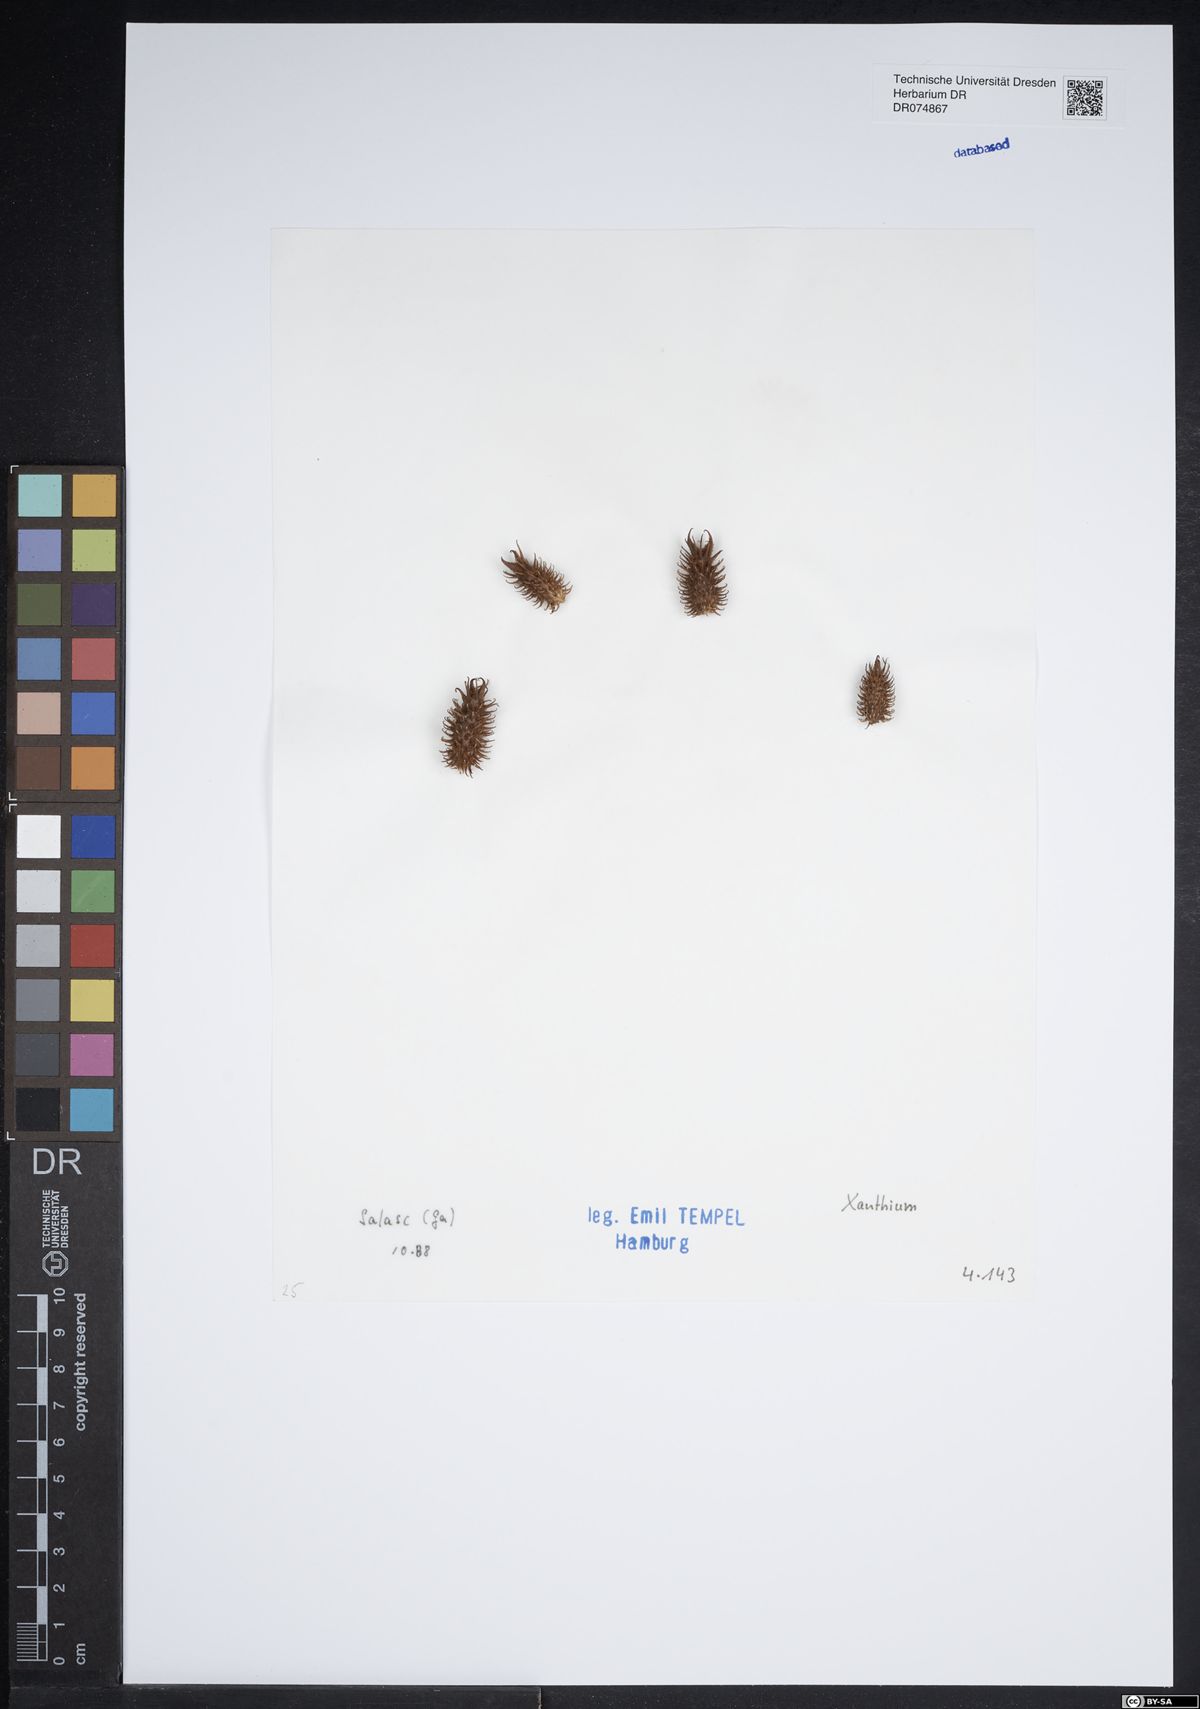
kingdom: Plantae
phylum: Tracheophyta
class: Magnoliopsida
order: Asterales
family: Asteraceae
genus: Bellis
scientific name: Bellis sylvestris
